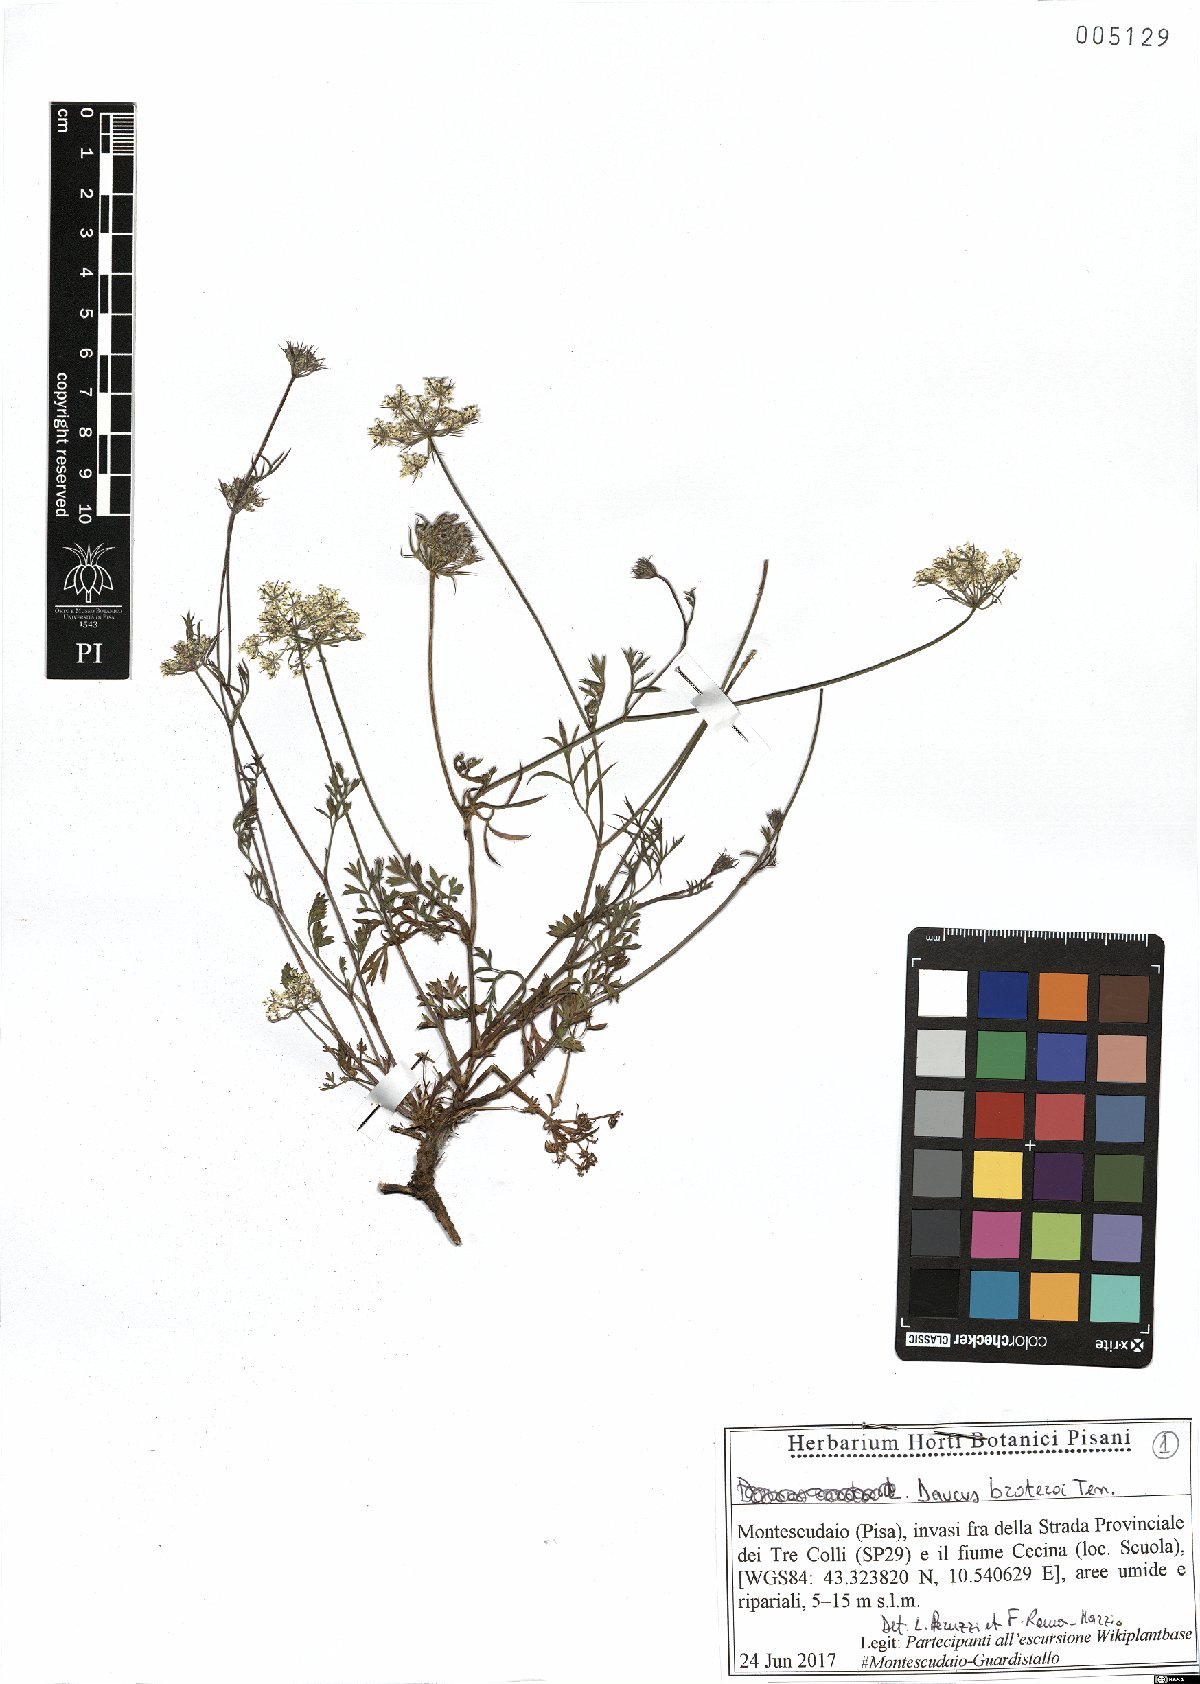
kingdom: Plantae
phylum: Tracheophyta
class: Magnoliopsida
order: Apiales
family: Apiaceae
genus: Daucus
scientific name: Daucus broteroi
